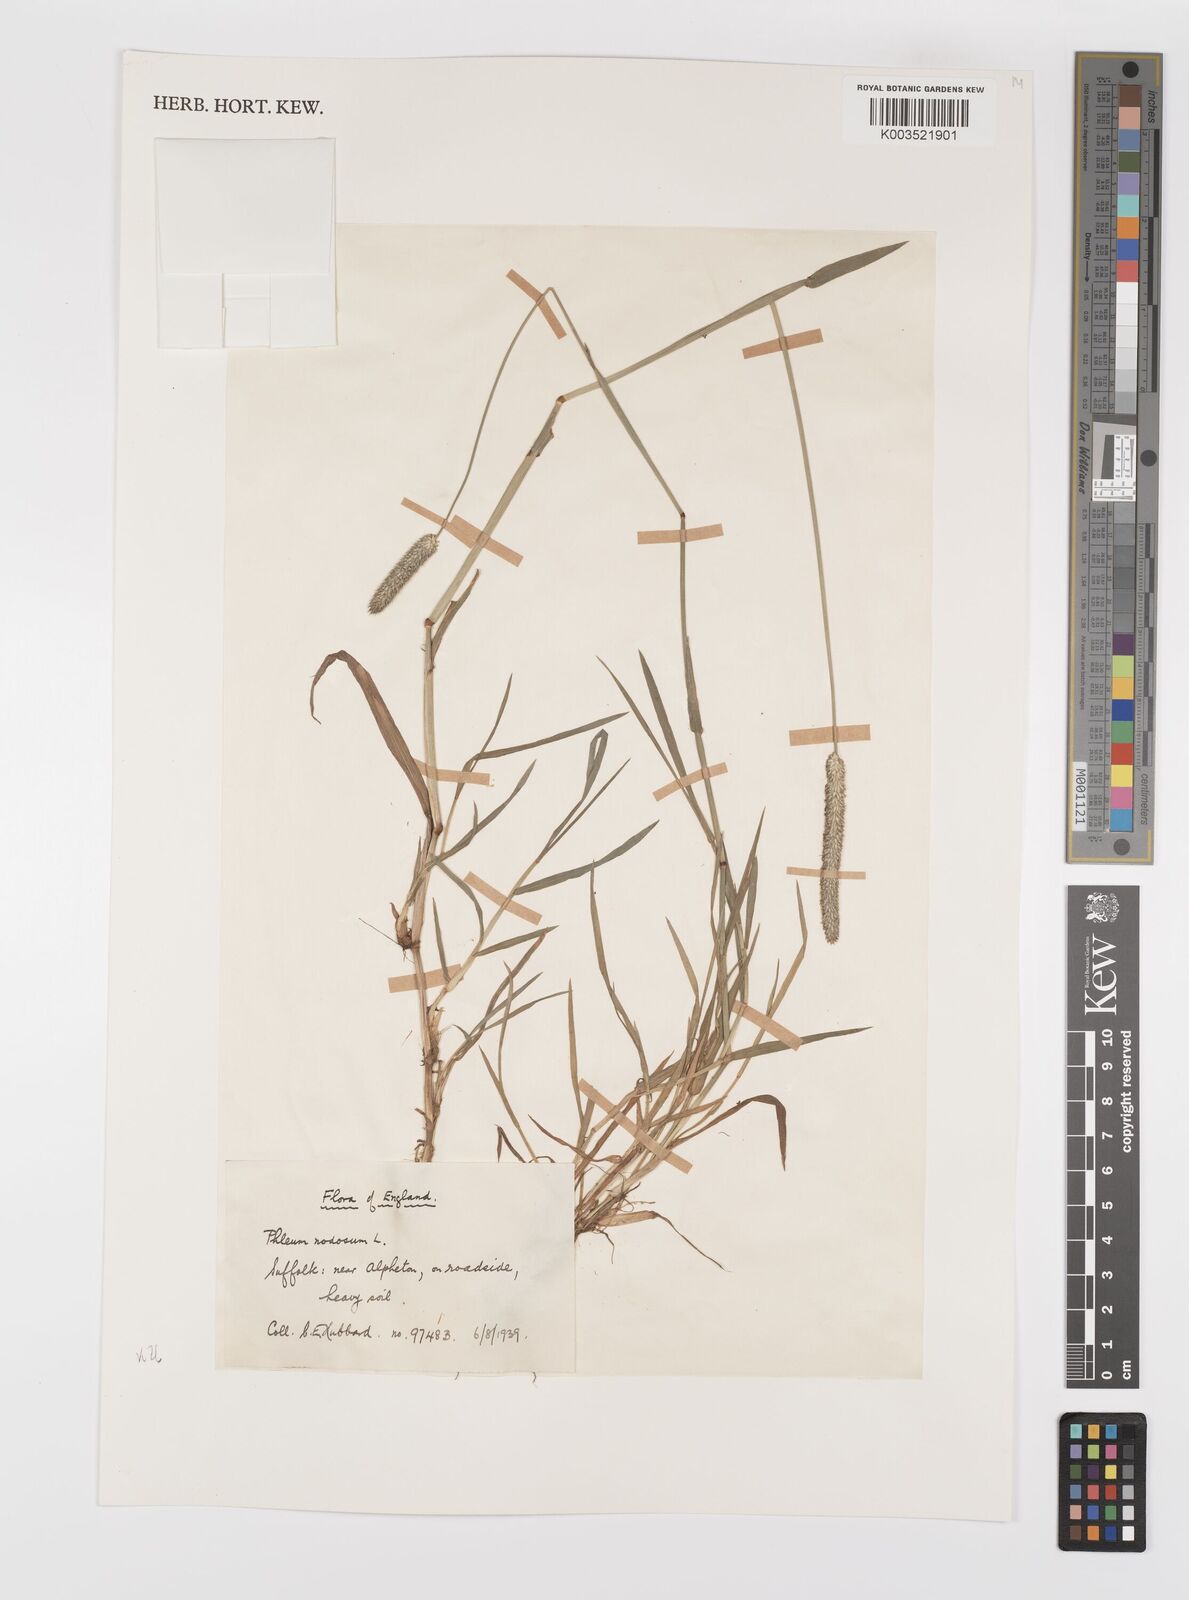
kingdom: Plantae
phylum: Tracheophyta
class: Liliopsida
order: Poales
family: Poaceae
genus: Phleum
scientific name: Phleum bertolonii
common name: Smaller cat's-tail
